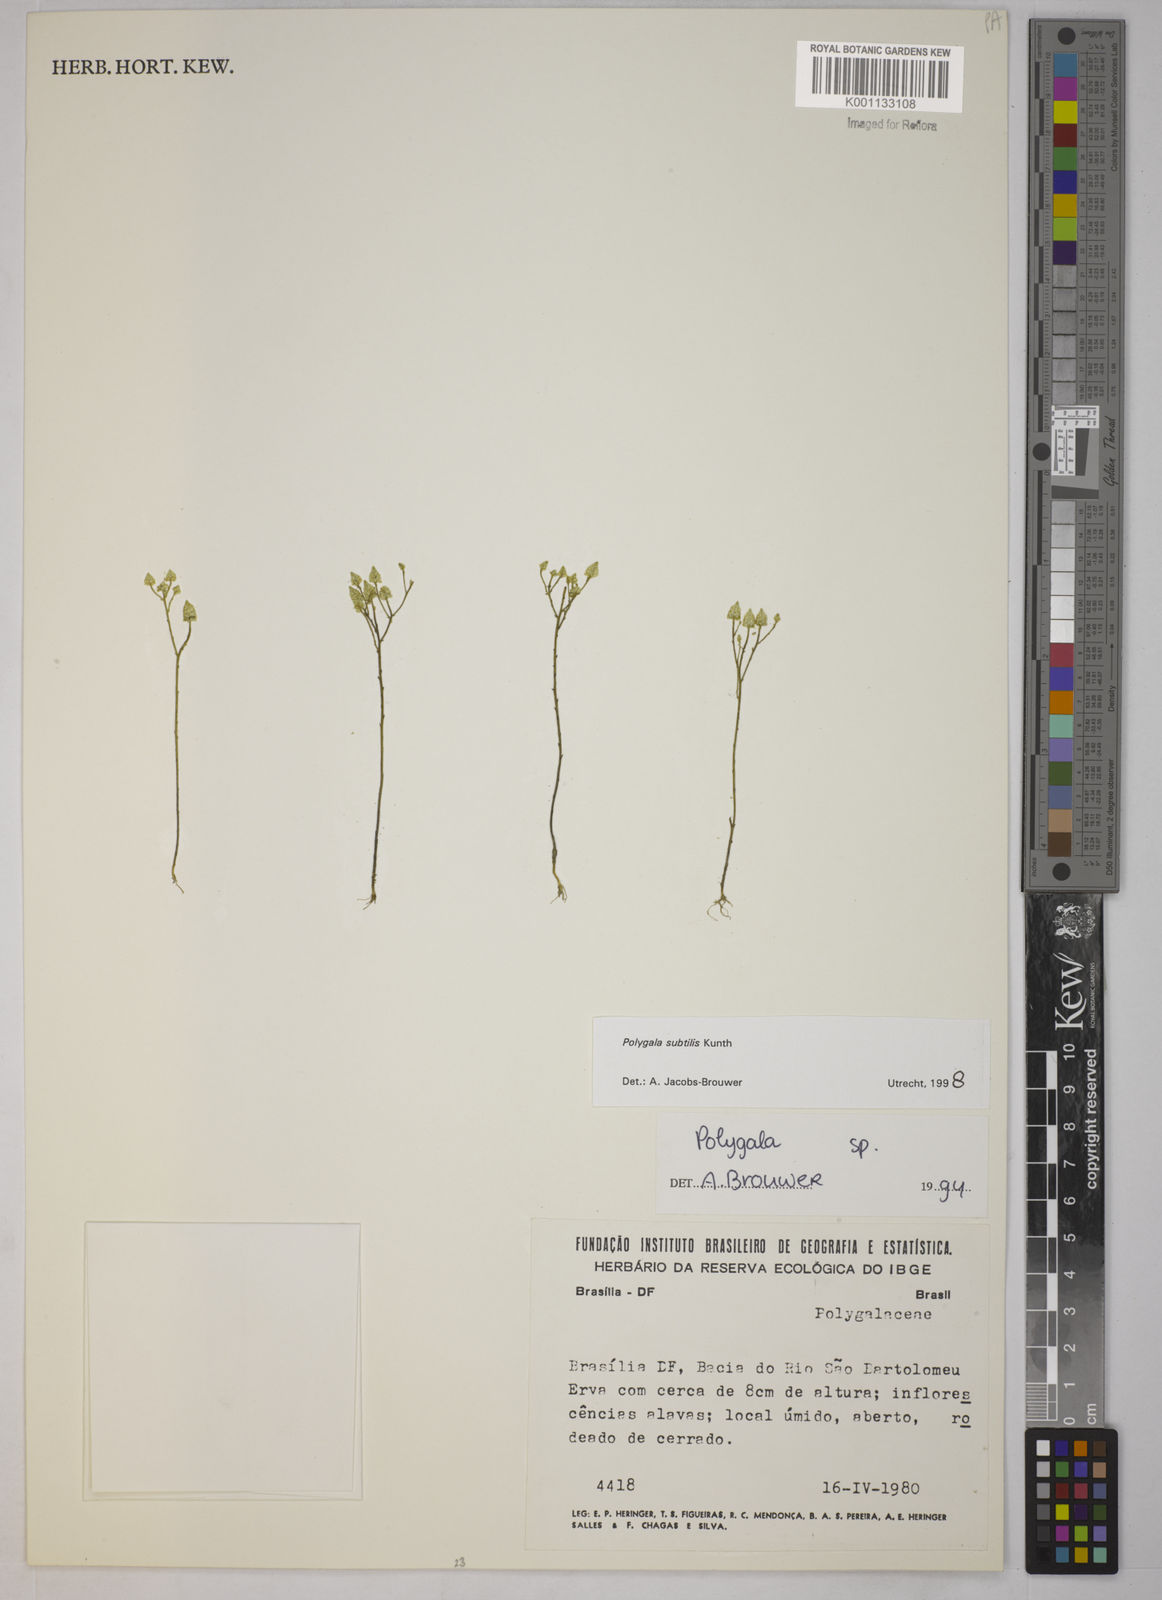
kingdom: Plantae
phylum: Tracheophyta
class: Magnoliopsida
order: Fabales
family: Polygalaceae
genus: Polygala
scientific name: Polygala subtilis
